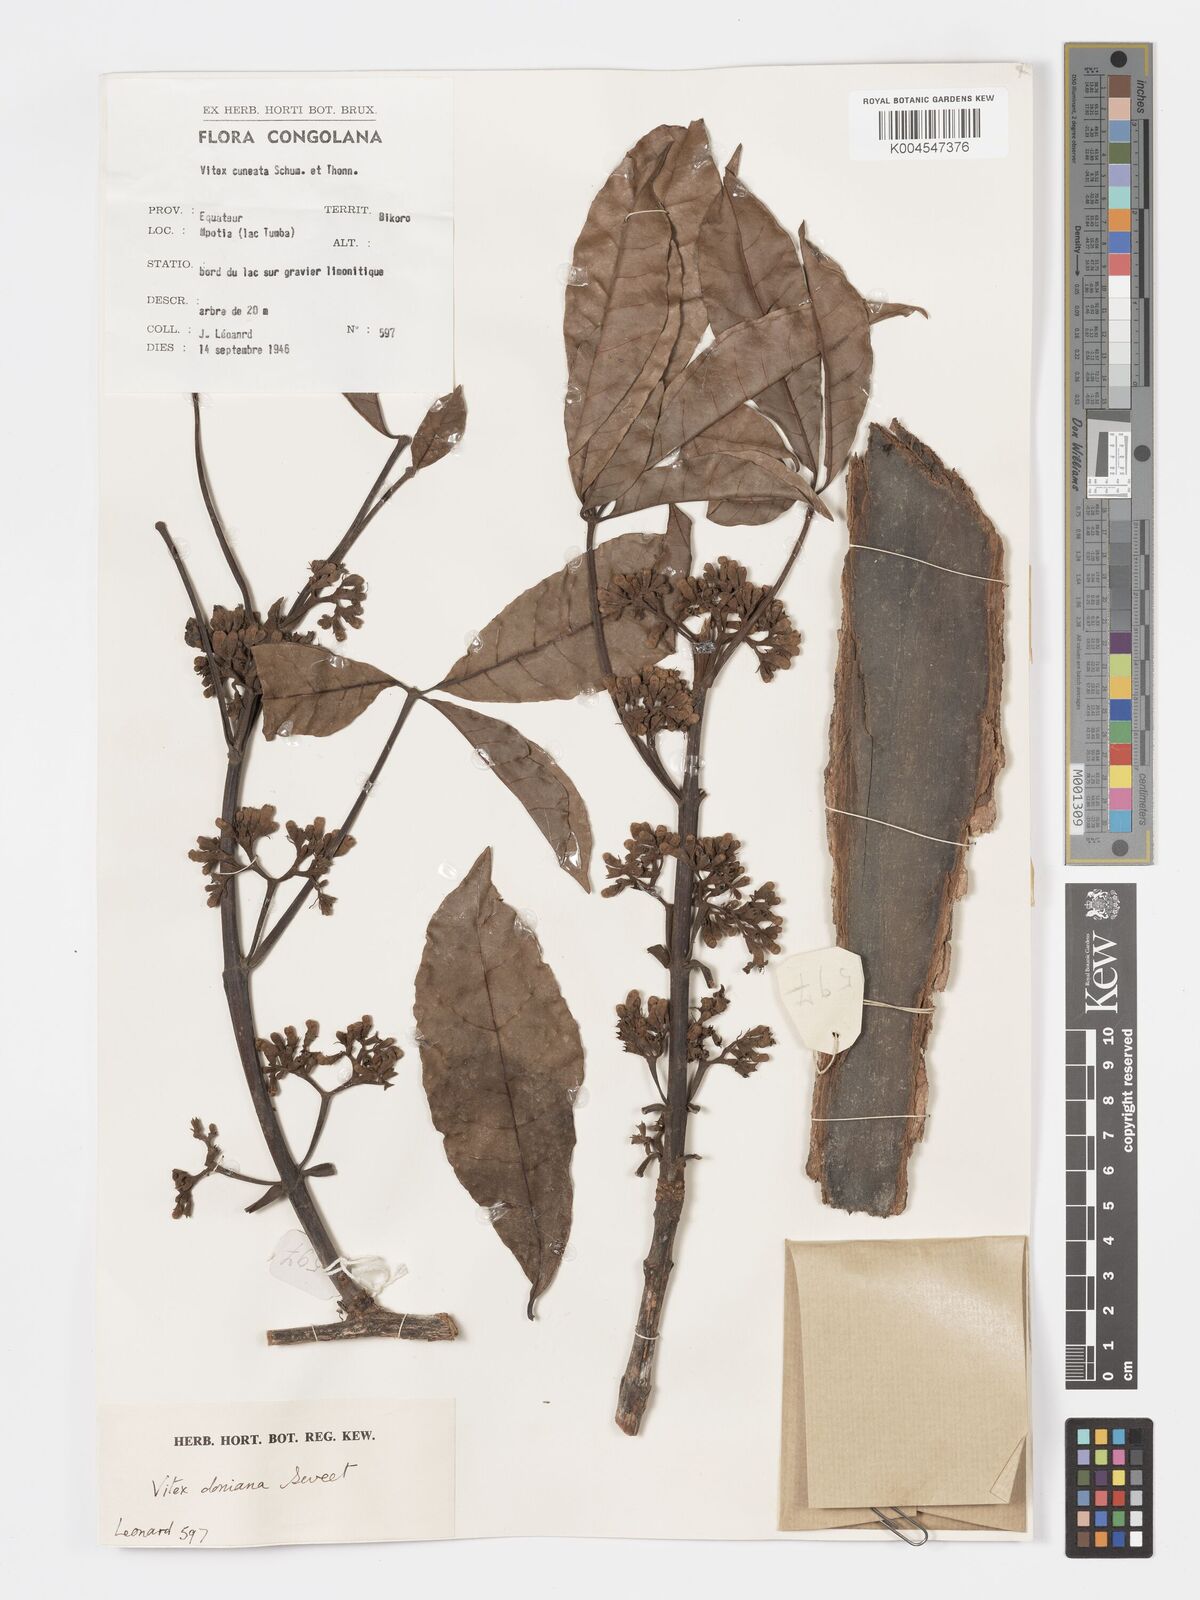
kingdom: Plantae
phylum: Tracheophyta
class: Magnoliopsida
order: Lamiales
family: Lamiaceae
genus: Vitex
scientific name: Vitex doniana
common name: Black plum
